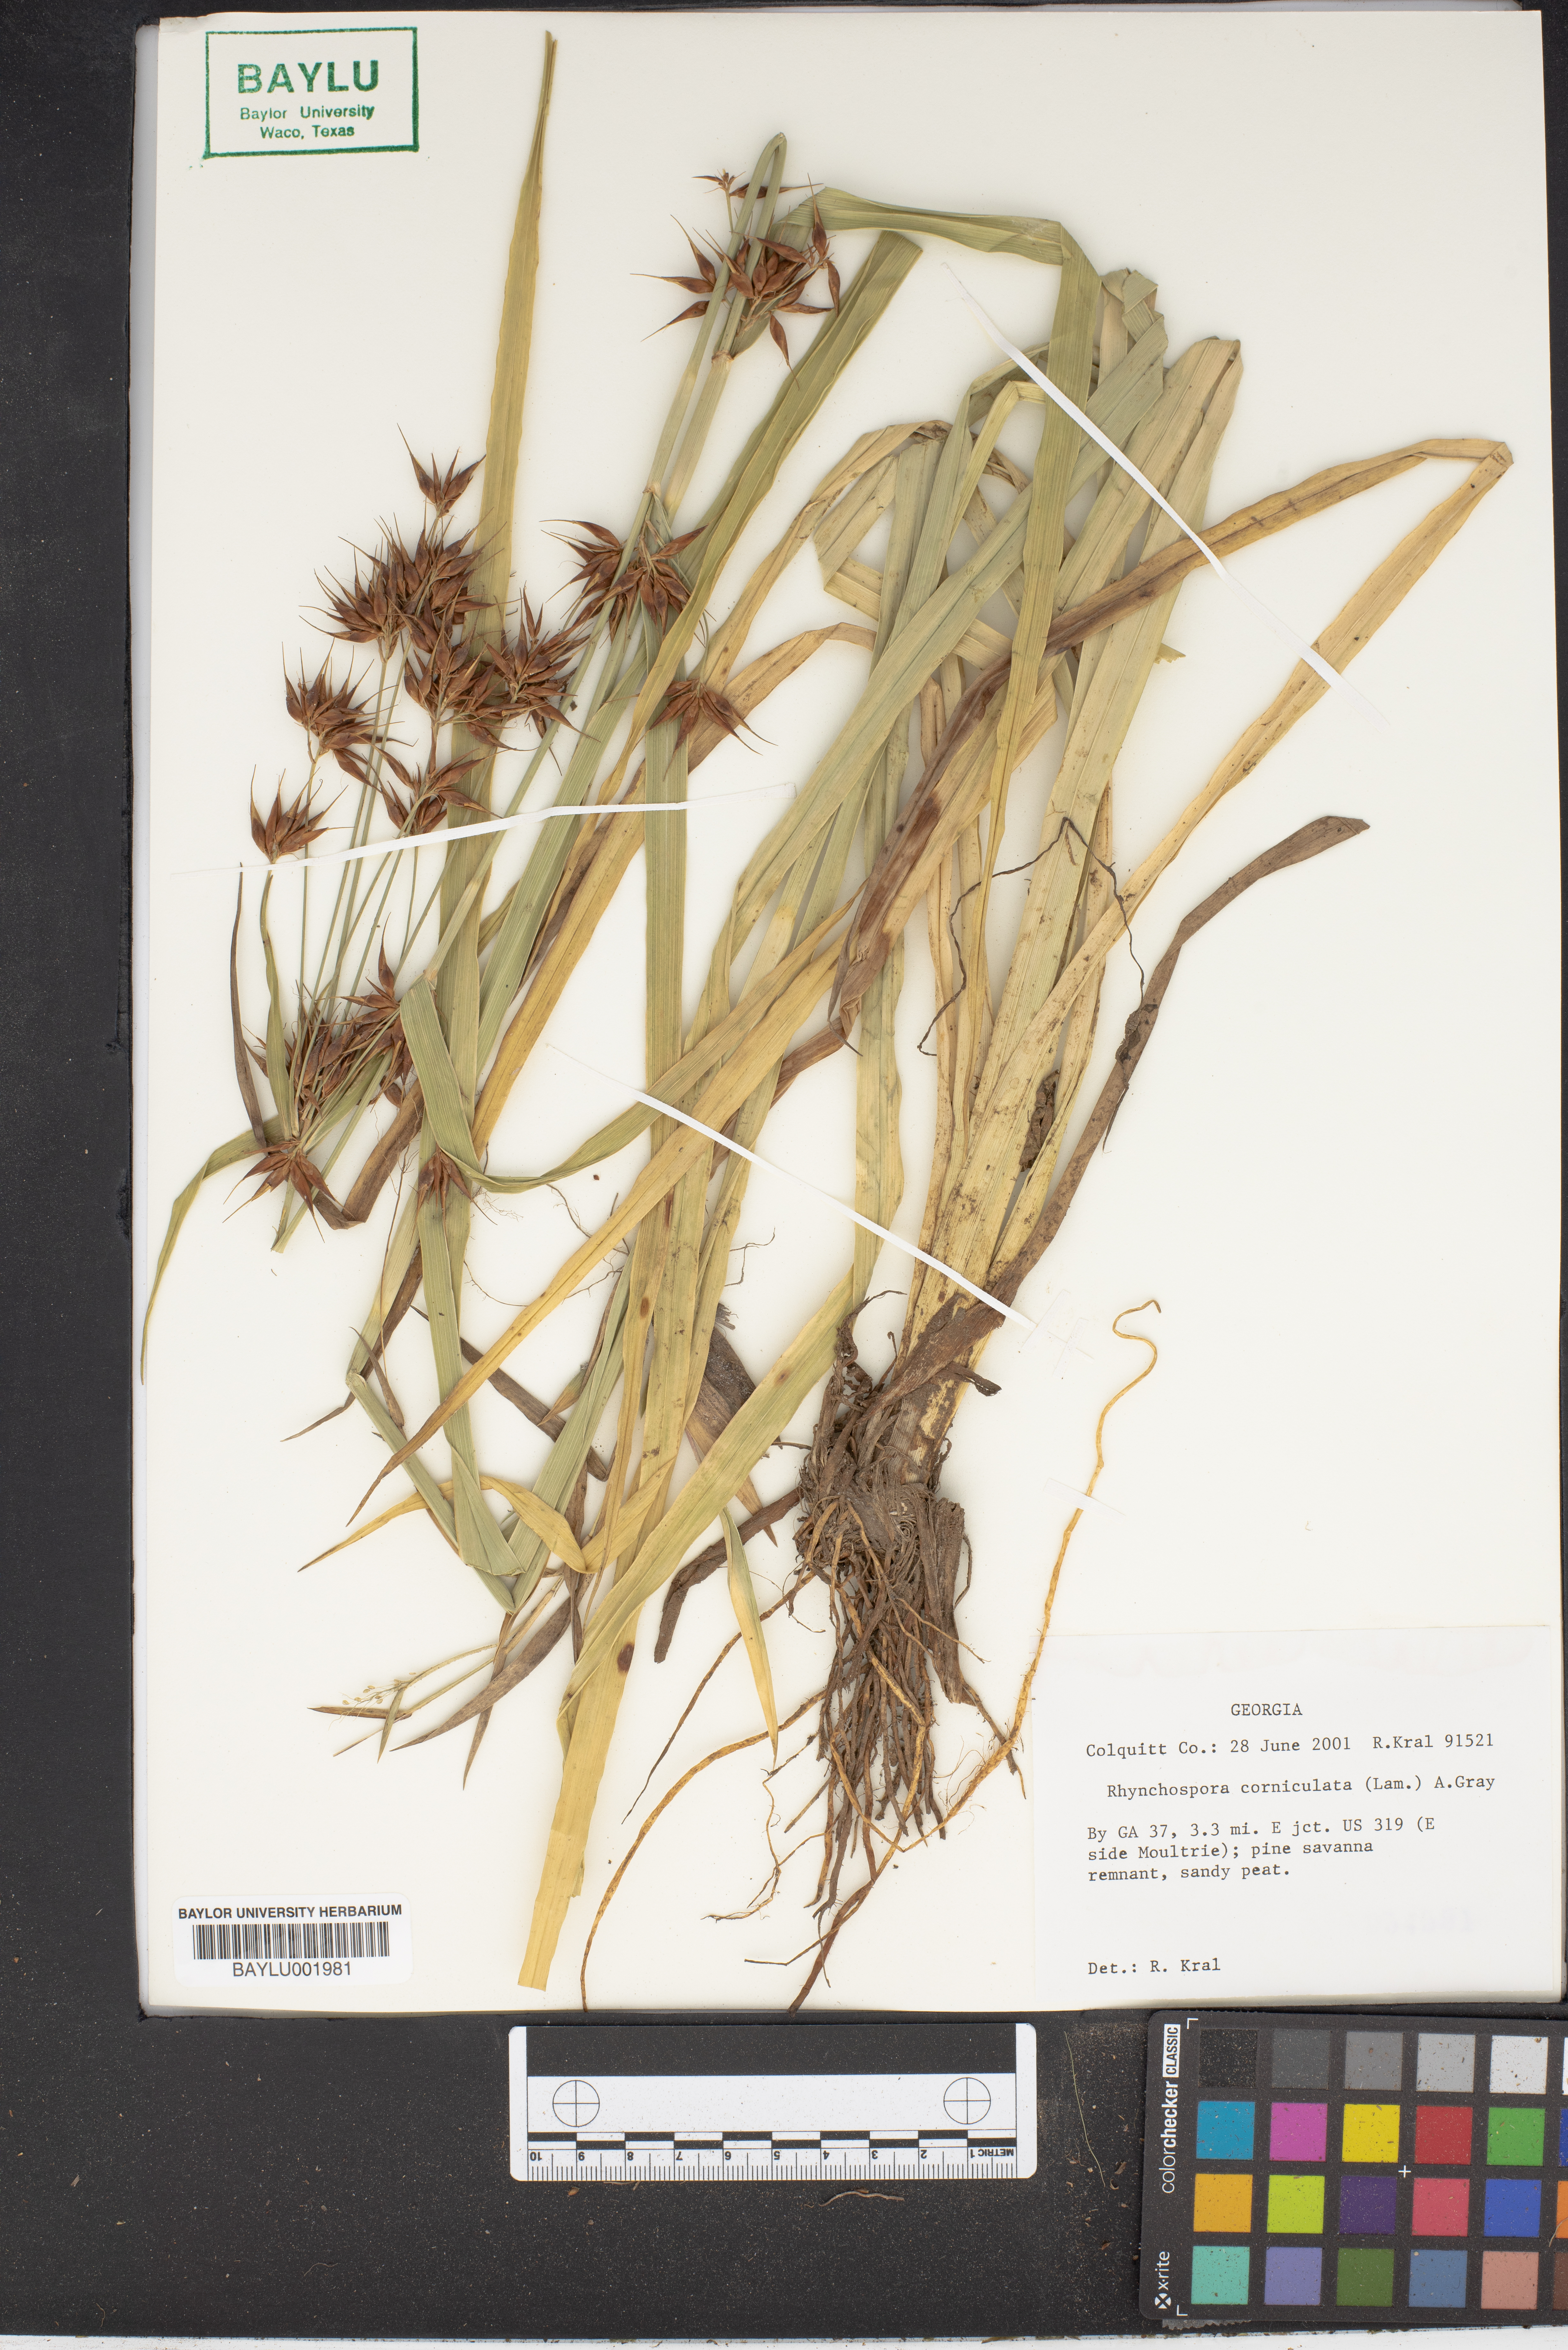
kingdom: Plantae
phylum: Tracheophyta
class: Liliopsida
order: Poales
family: Cyperaceae
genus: Rhynchospora
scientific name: Rhynchospora corniculata
